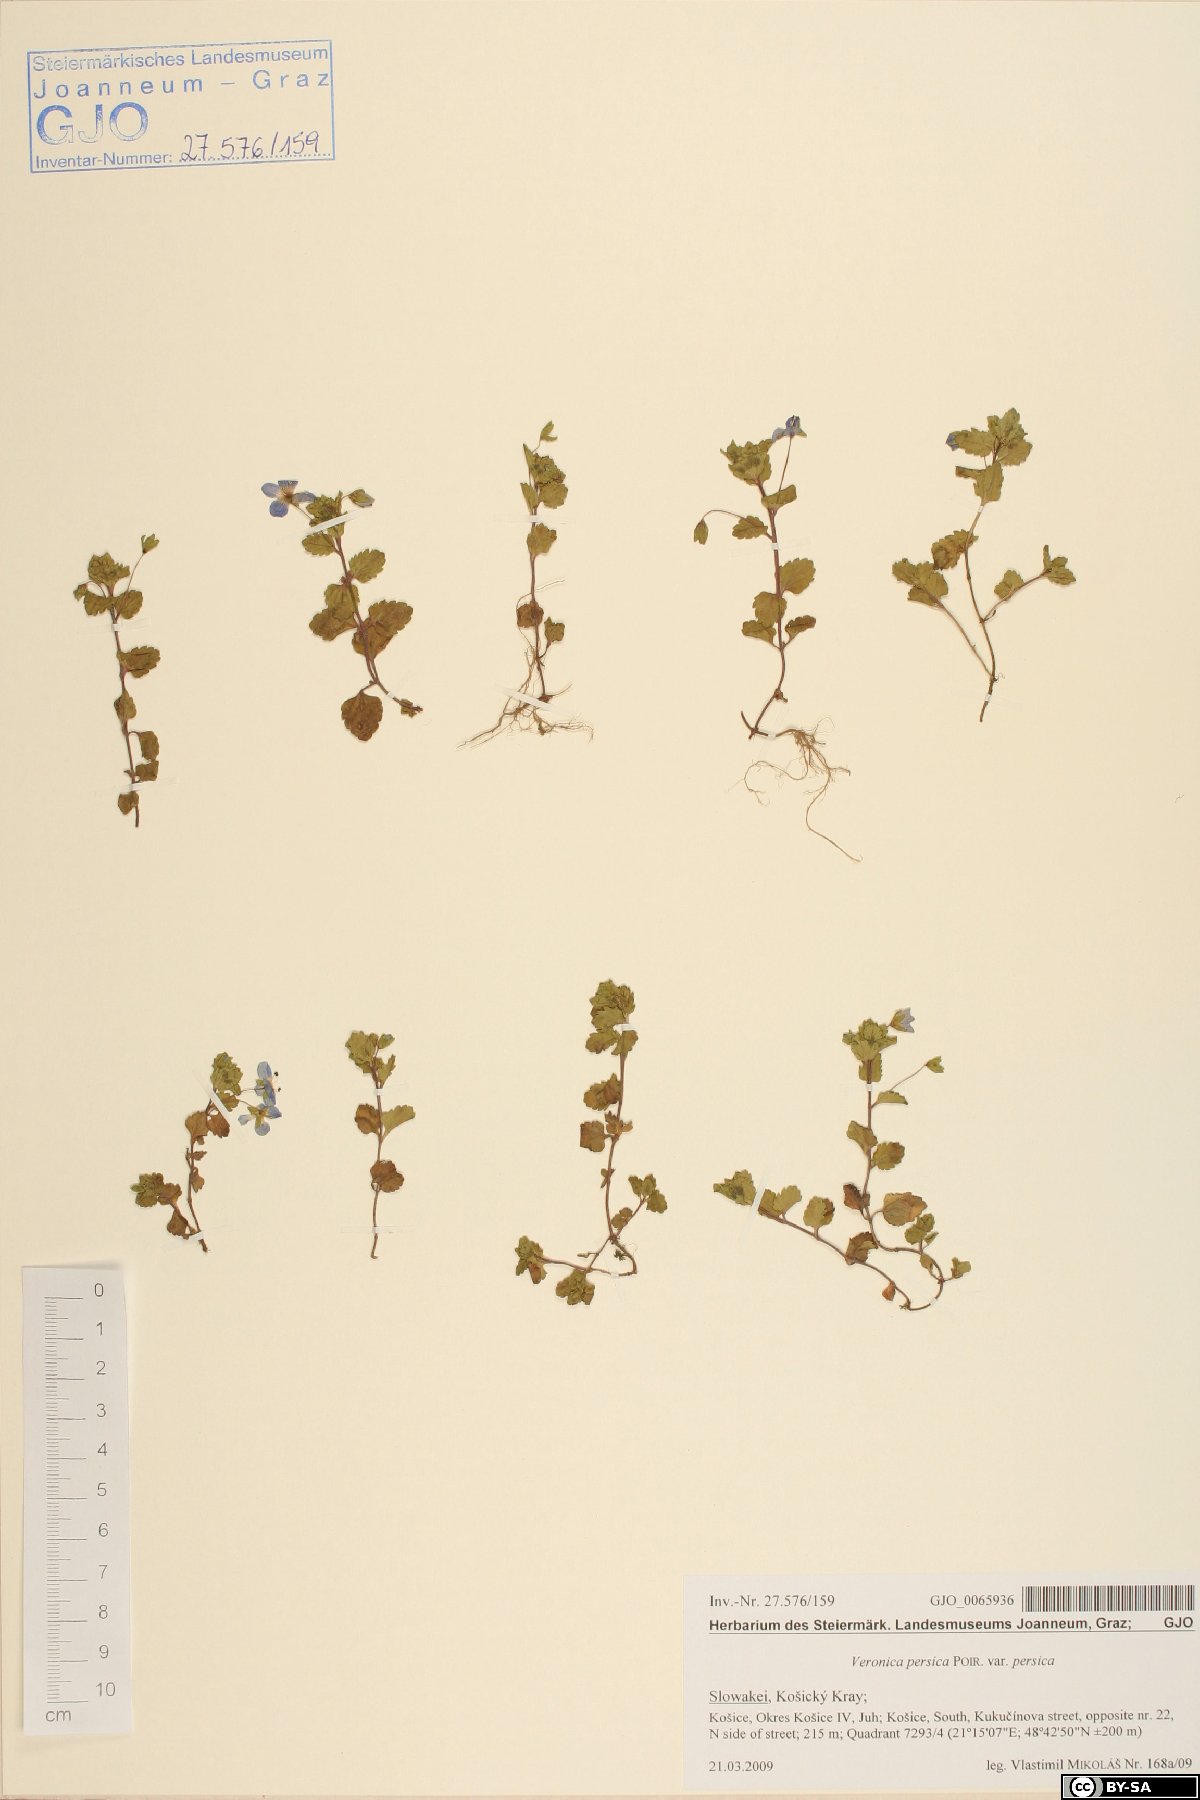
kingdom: Plantae
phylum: Tracheophyta
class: Magnoliopsida
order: Lamiales
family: Plantaginaceae
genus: Veronica
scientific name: Veronica persica
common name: Common field-speedwell
